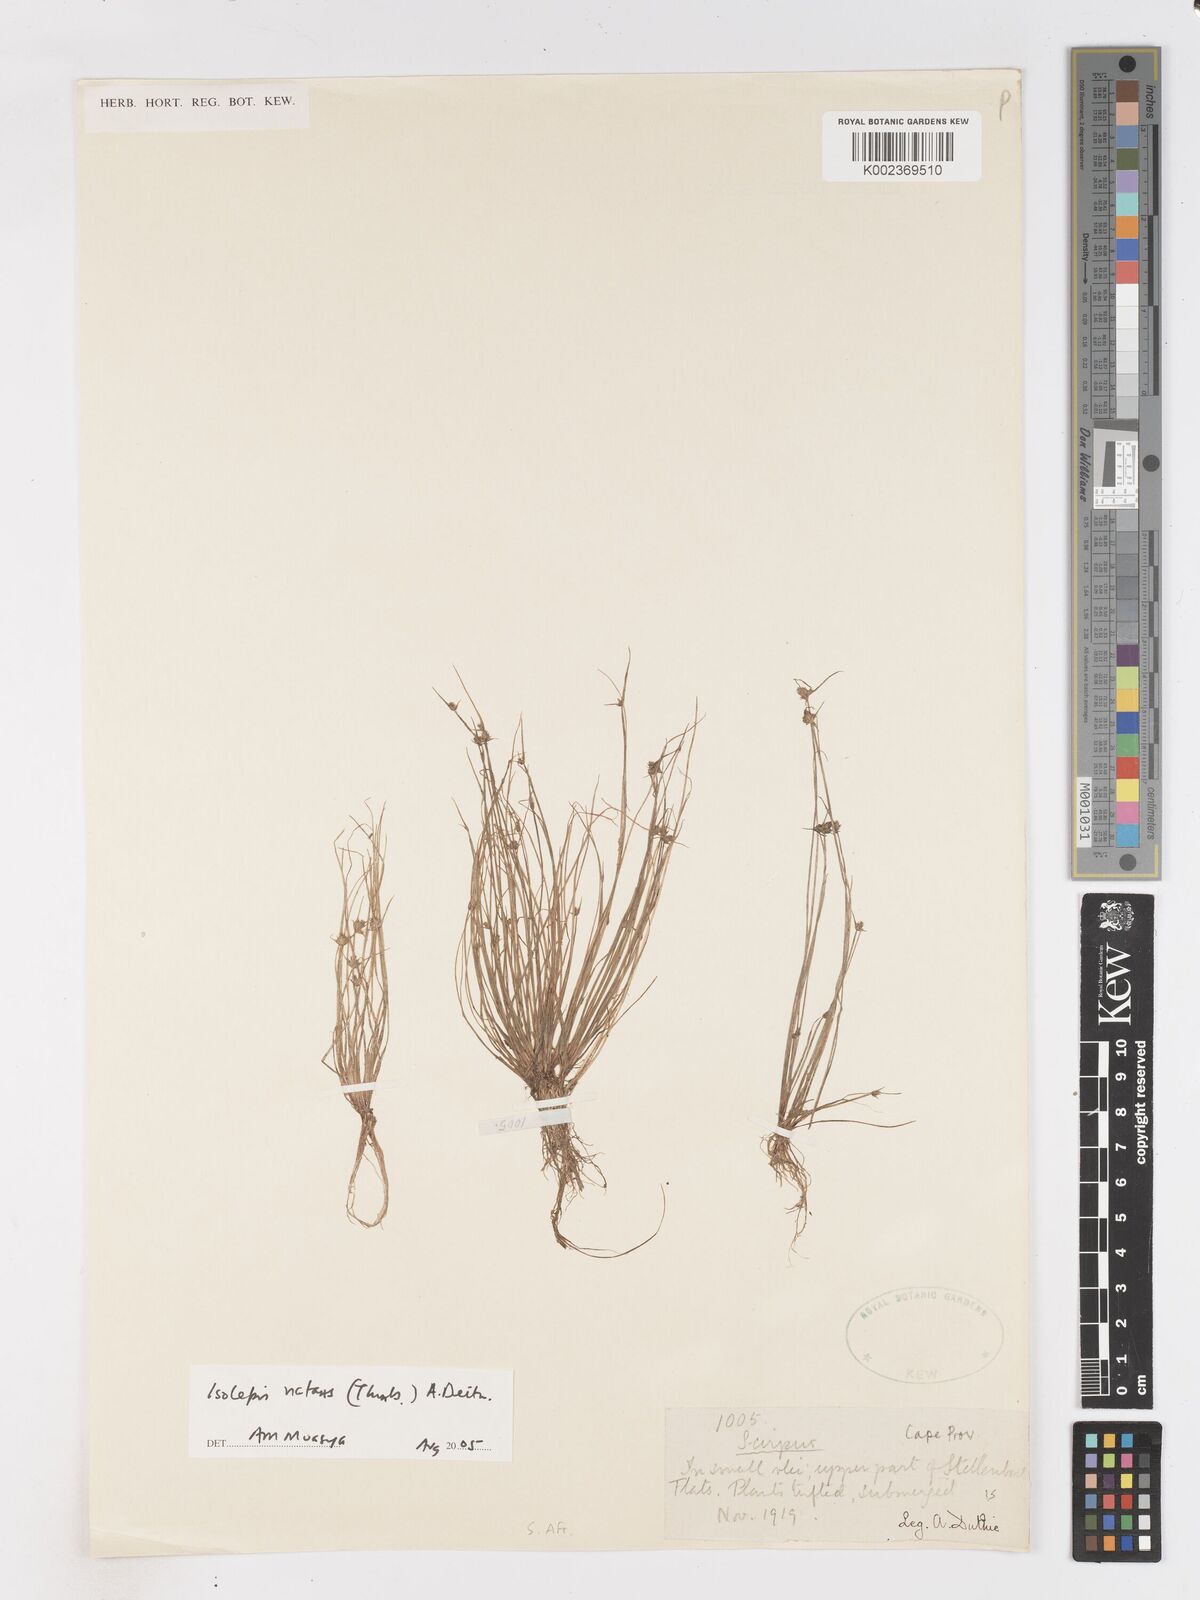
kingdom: Plantae
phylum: Tracheophyta
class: Liliopsida
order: Poales
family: Cyperaceae
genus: Isolepis
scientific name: Isolepis natans
